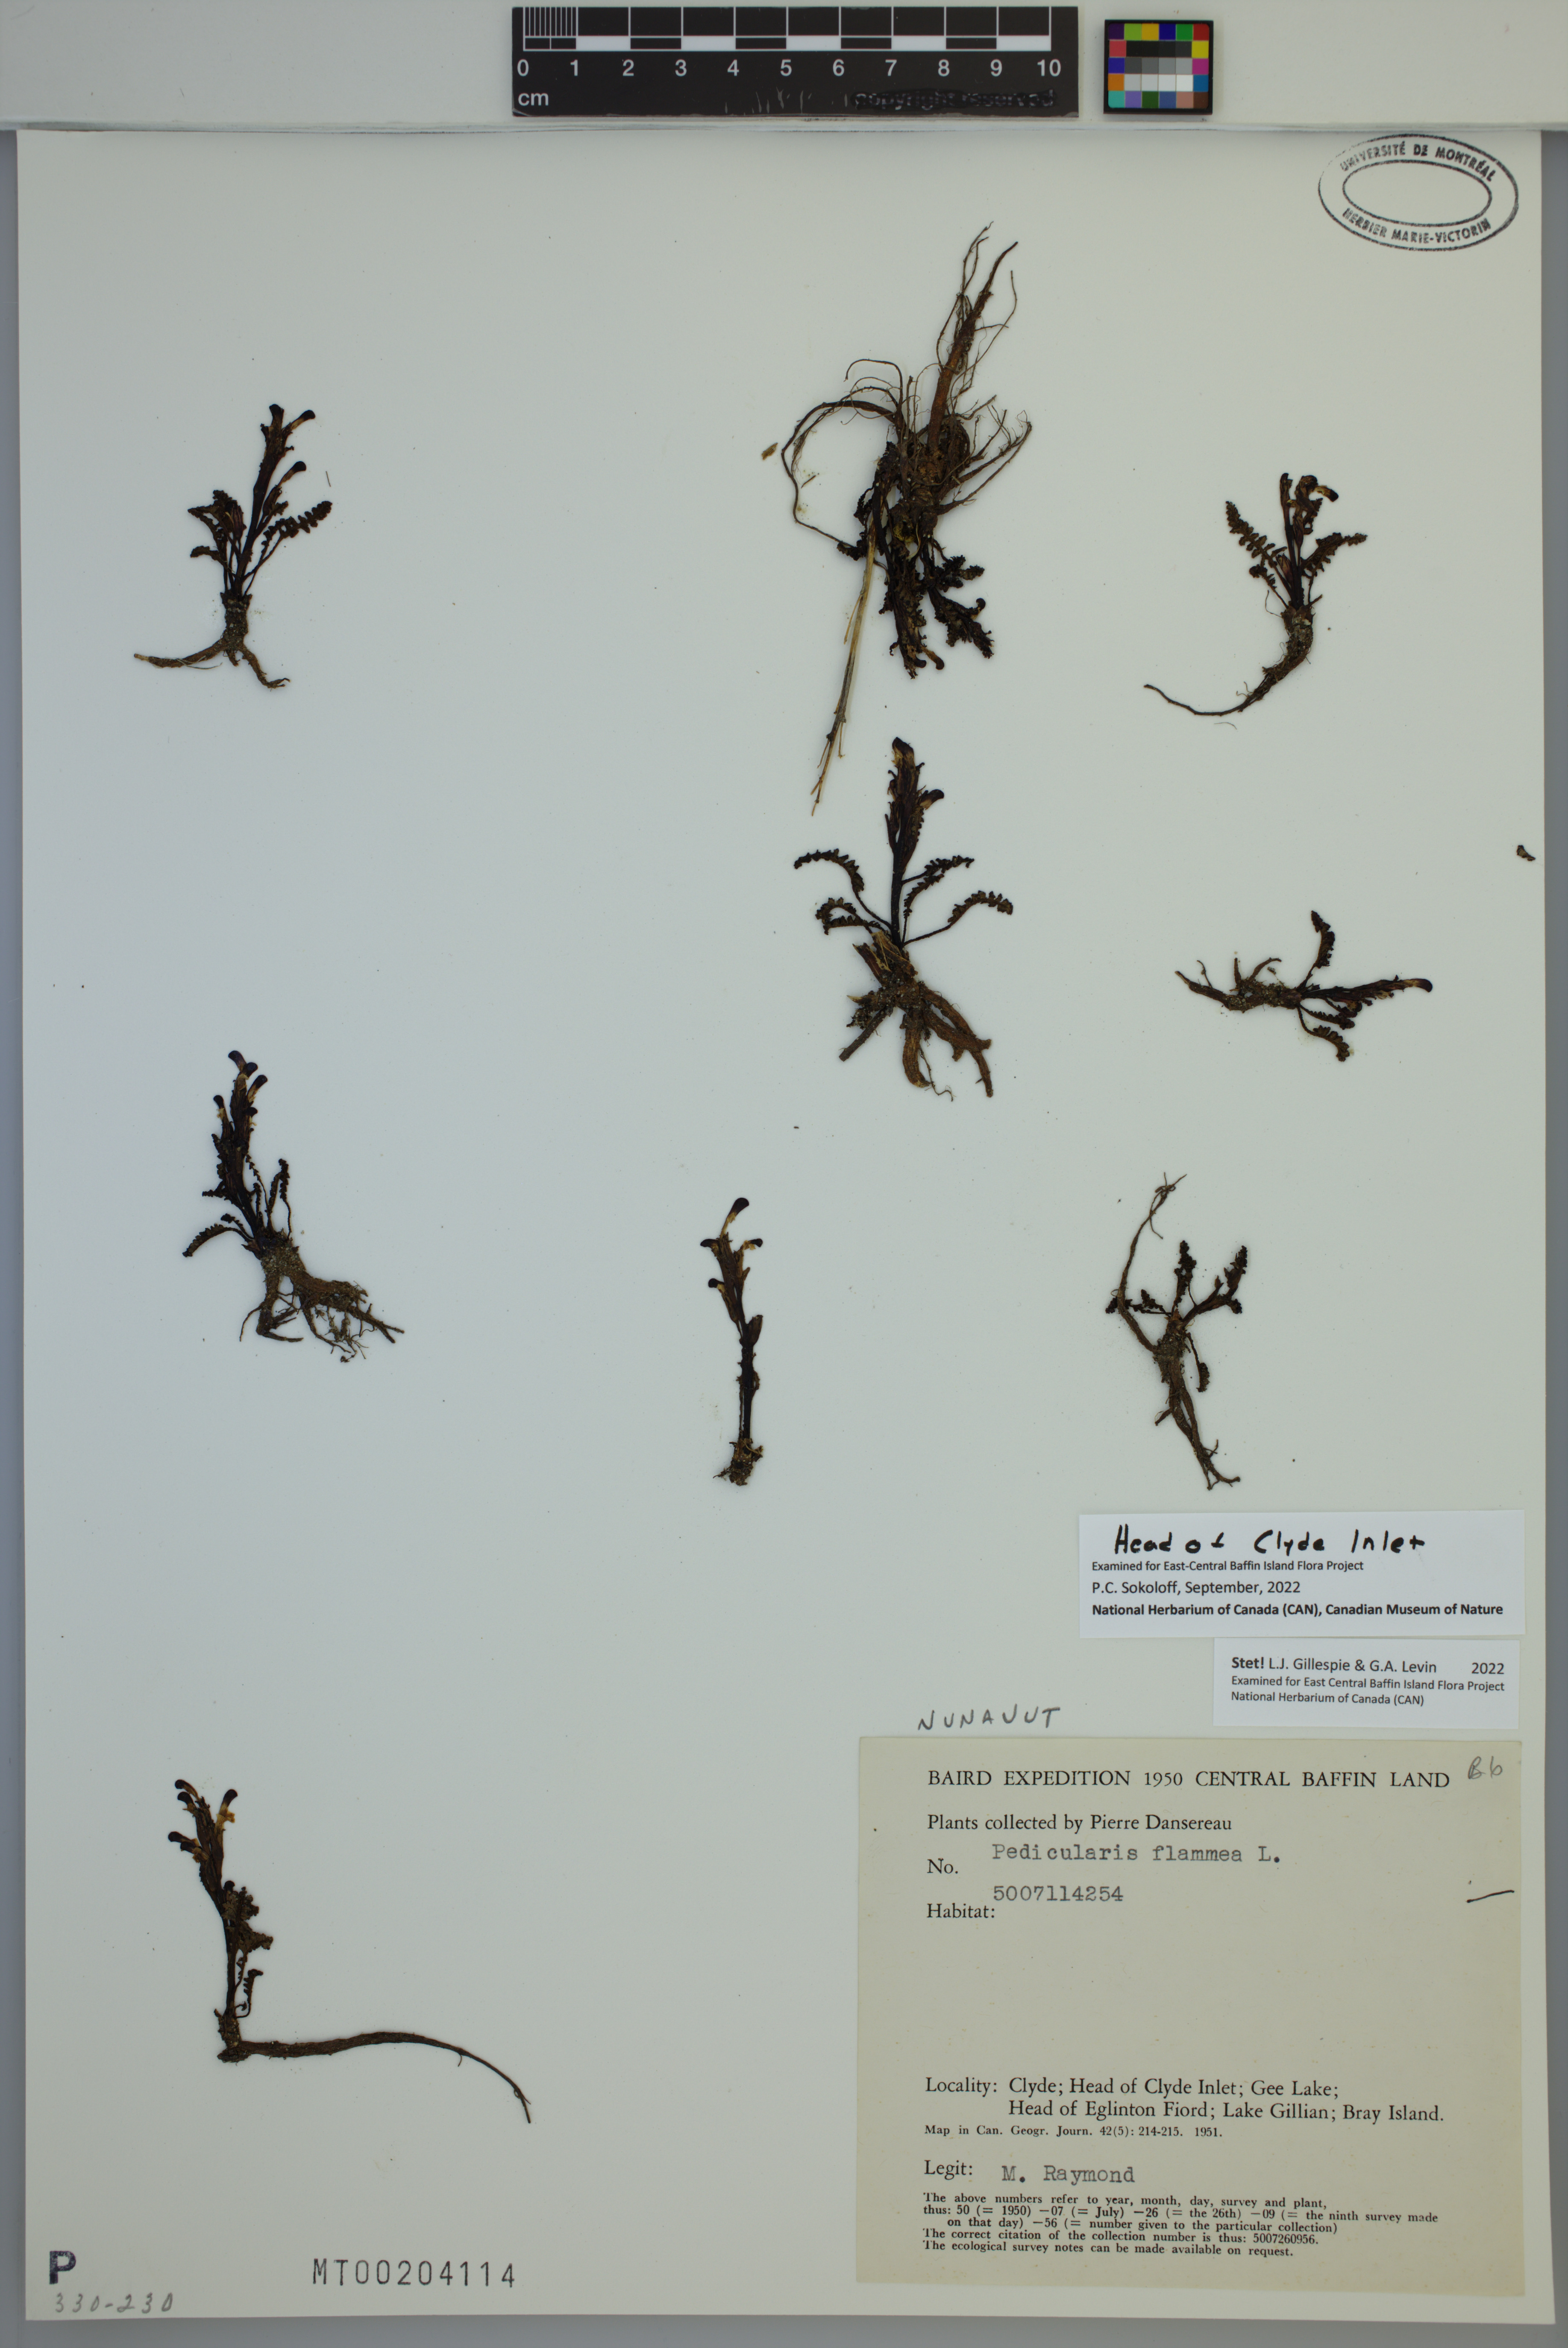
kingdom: Plantae
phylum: Tracheophyta
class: Magnoliopsida
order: Lamiales
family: Orobanchaceae
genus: Pedicularis
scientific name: Pedicularis flammea
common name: Flame-coloured lousewort
